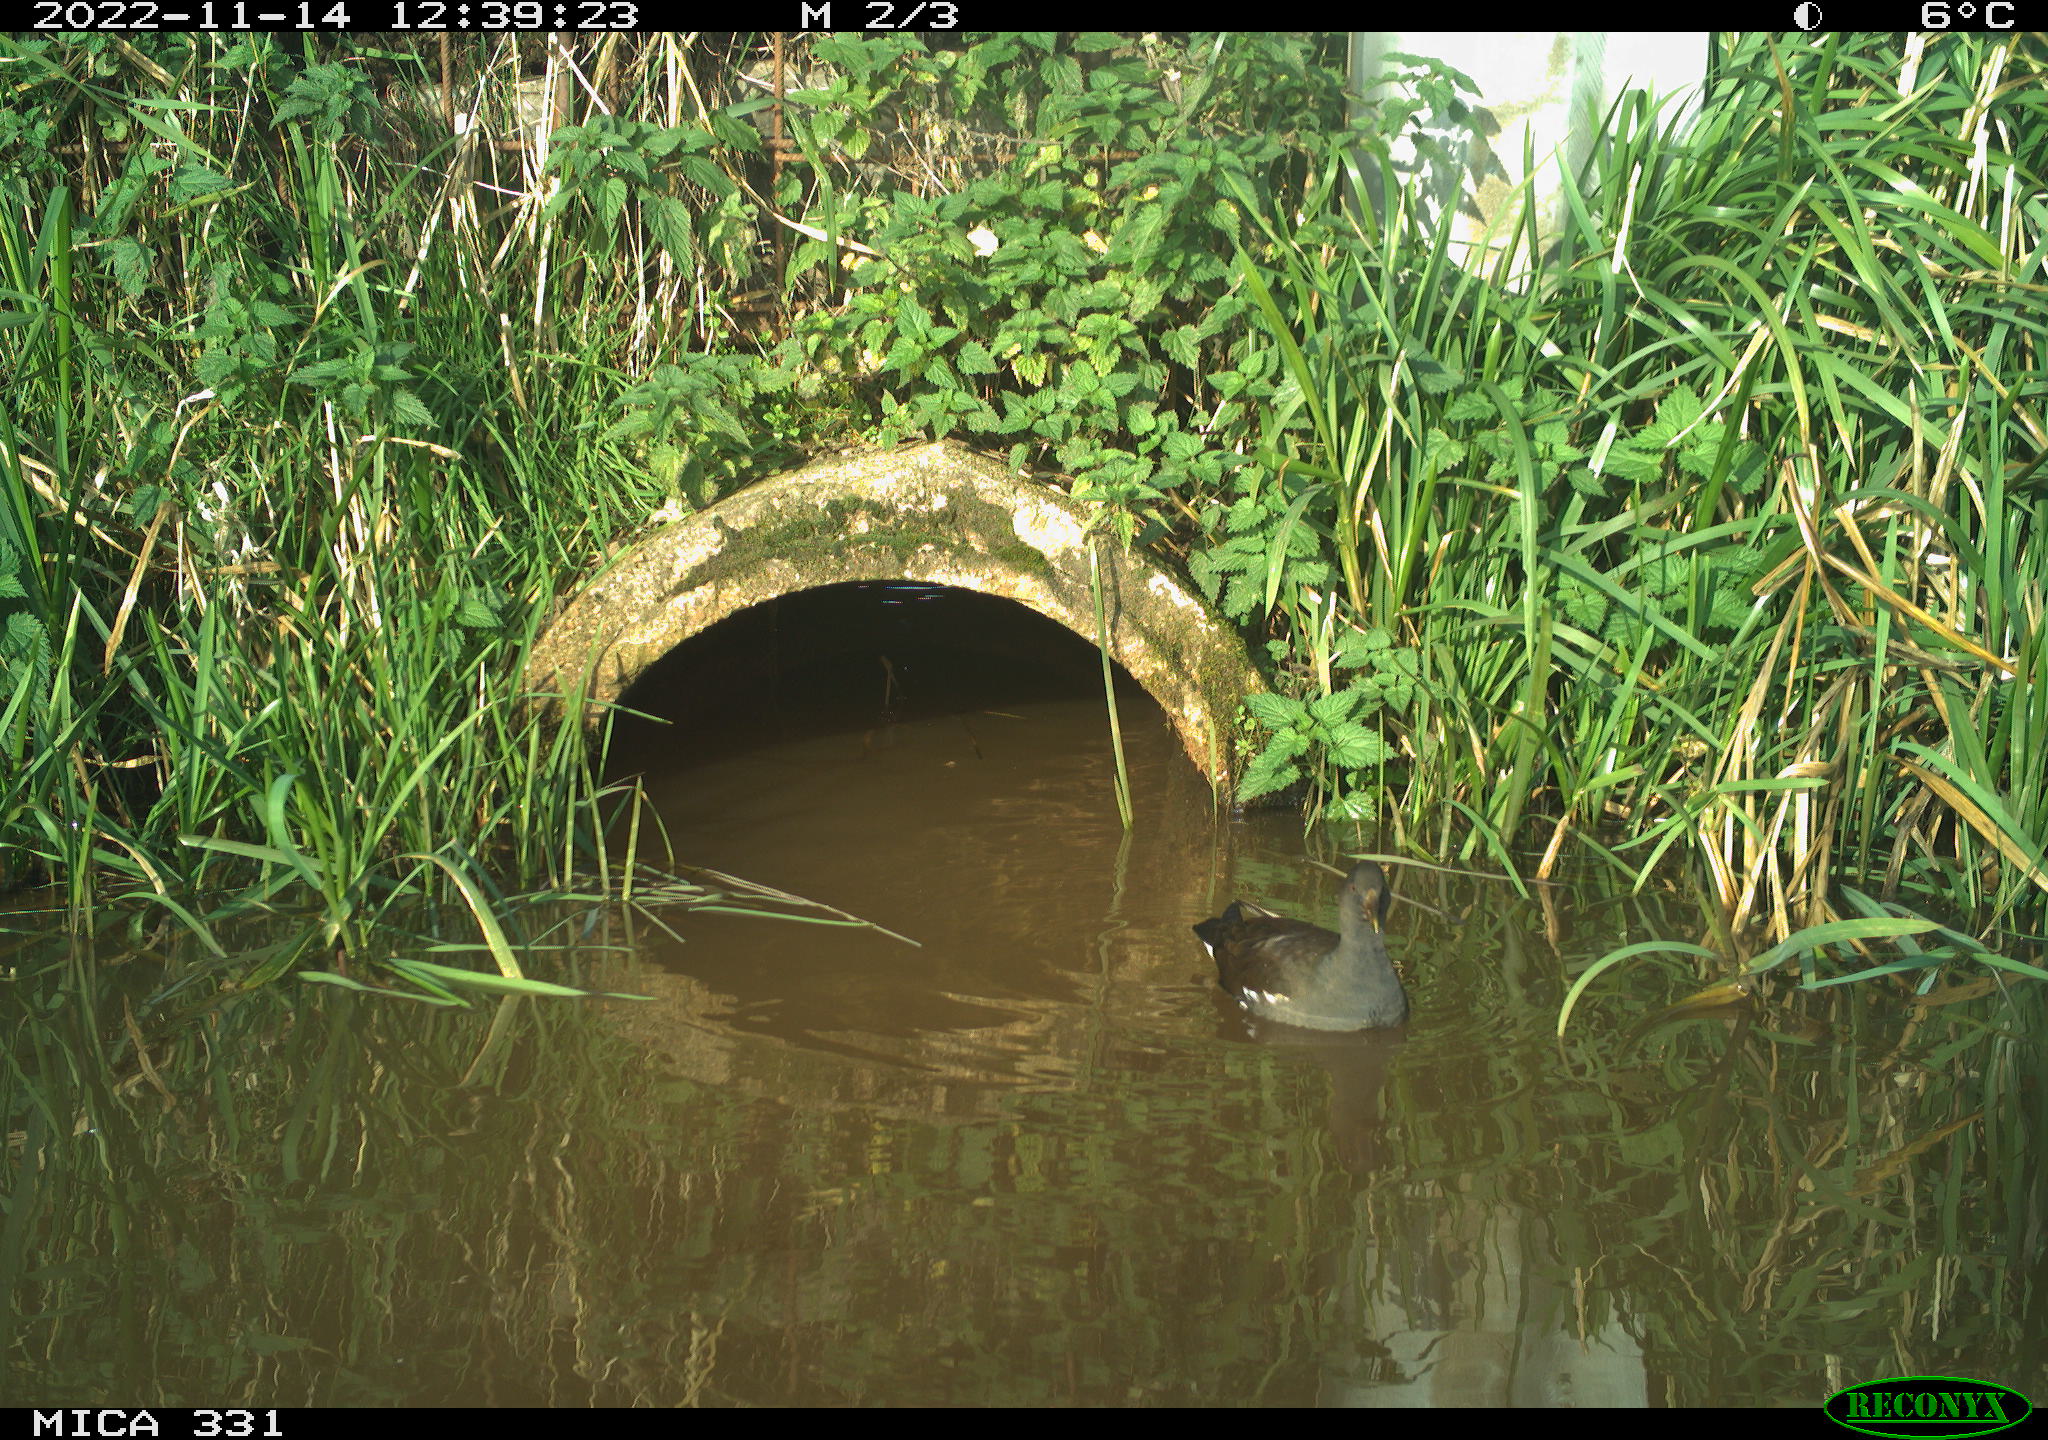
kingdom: Animalia
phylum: Chordata
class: Aves
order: Gruiformes
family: Rallidae
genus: Gallinula
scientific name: Gallinula chloropus
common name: Common moorhen
